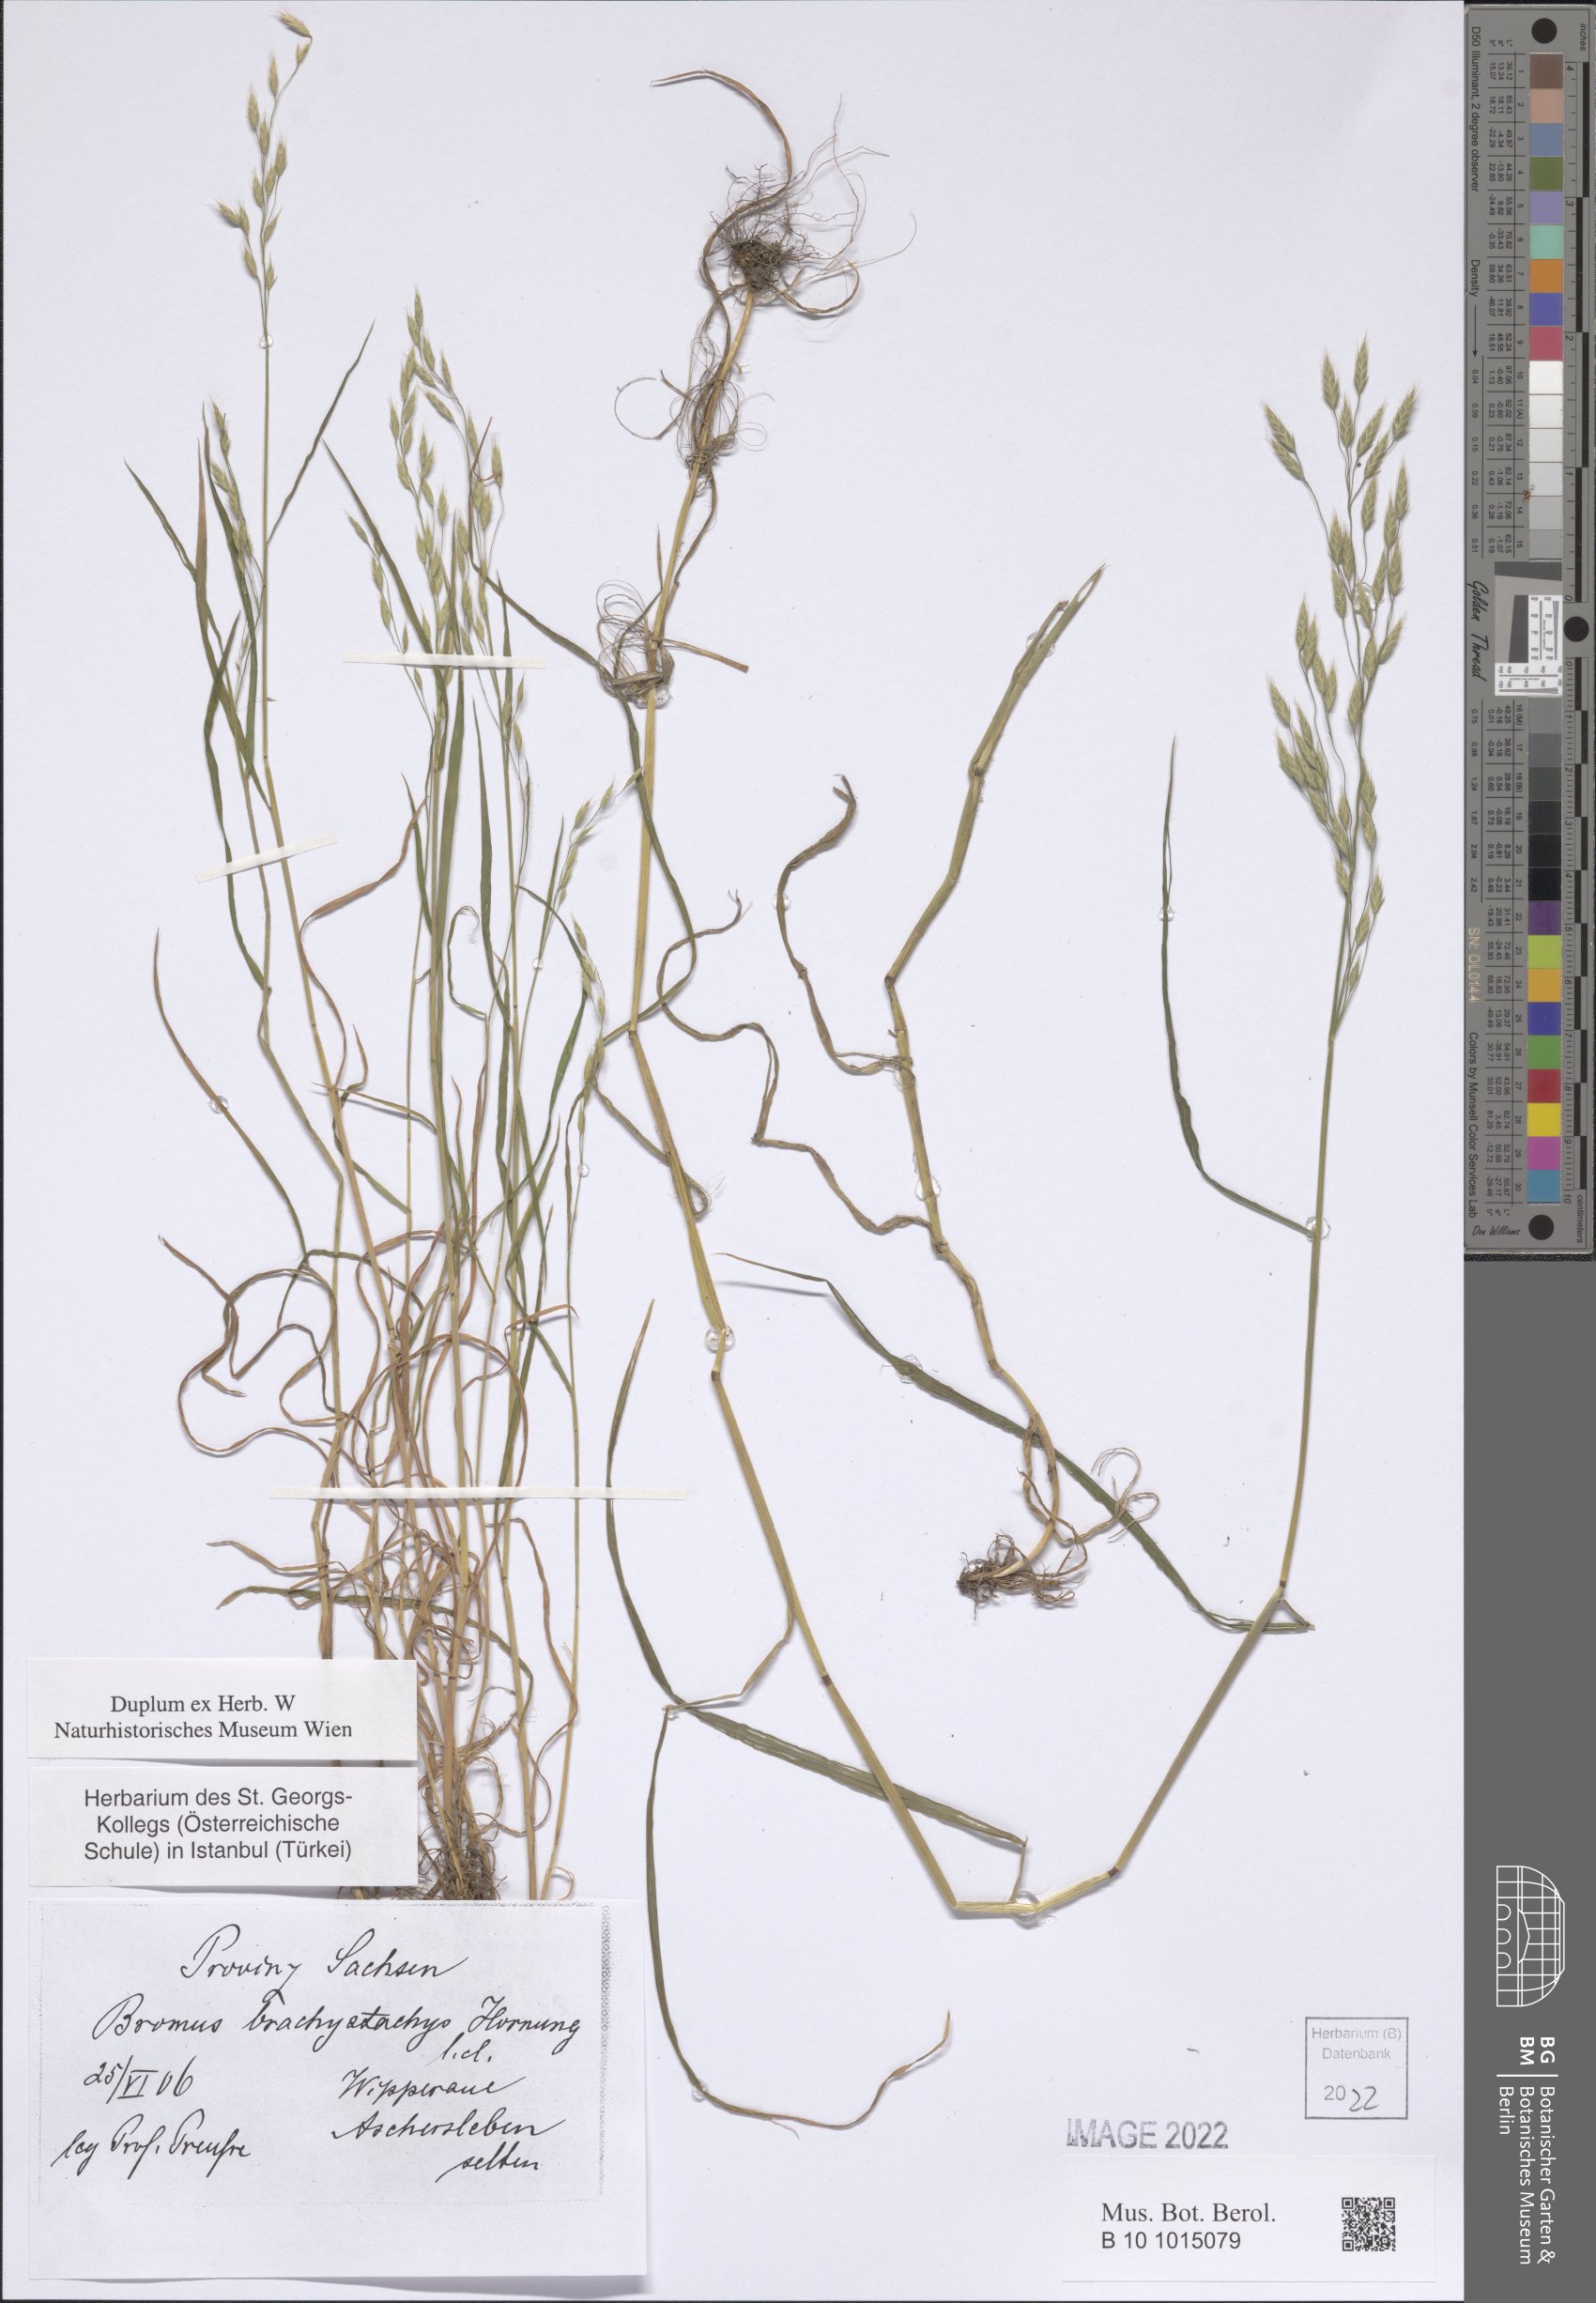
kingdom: Plantae
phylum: Tracheophyta
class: Liliopsida
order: Poales
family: Poaceae
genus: Bromus
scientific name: Bromus brachystachys
